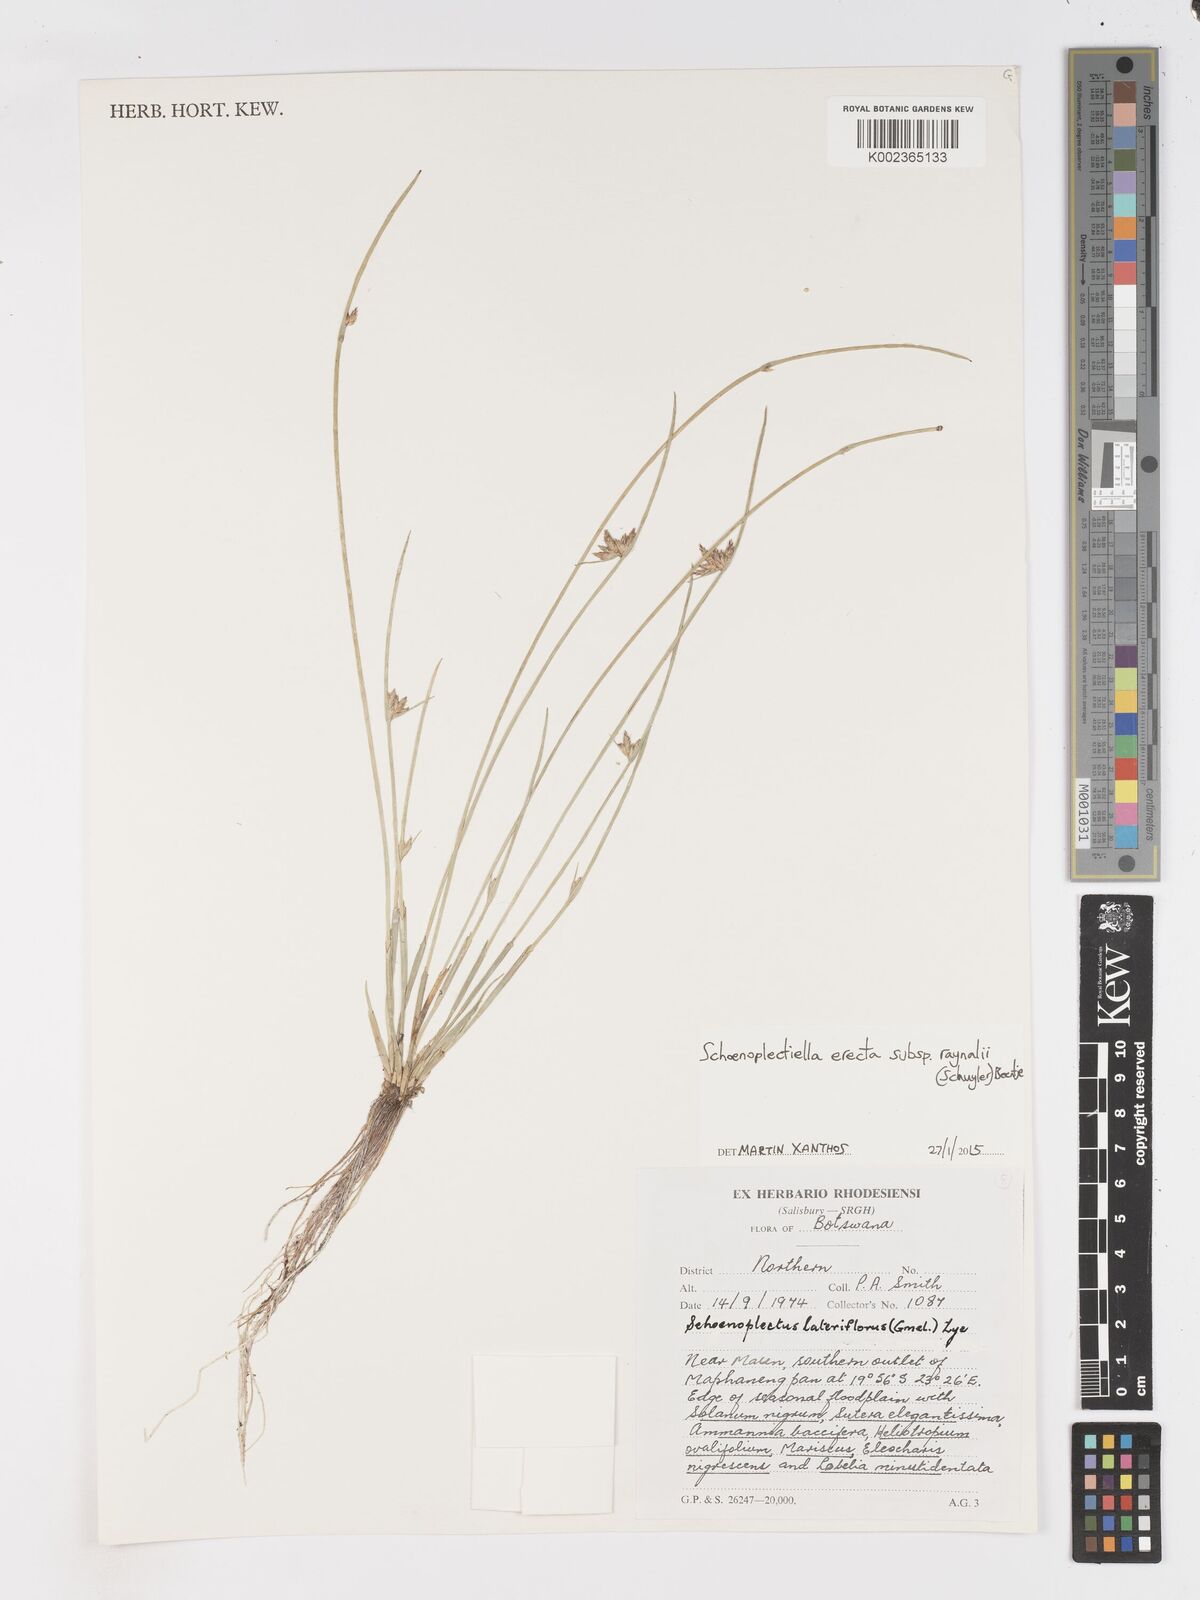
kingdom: Plantae
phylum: Tracheophyta
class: Liliopsida
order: Poales
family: Cyperaceae
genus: Schoenoplectiella
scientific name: Schoenoplectiella erecta
